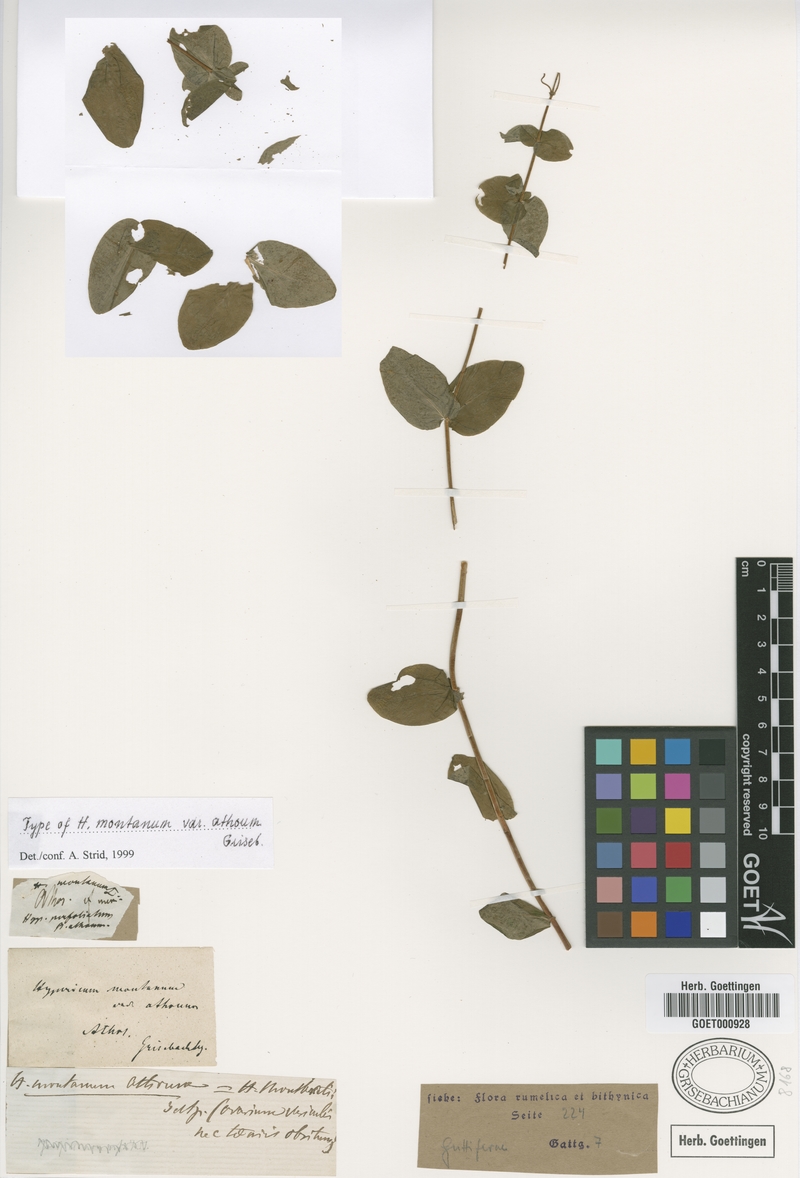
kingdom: Plantae
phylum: Tracheophyta
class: Magnoliopsida
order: Malpighiales
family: Hypericaceae
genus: Hypericum
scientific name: Hypericum montanum
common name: Pale st. john's-wort
